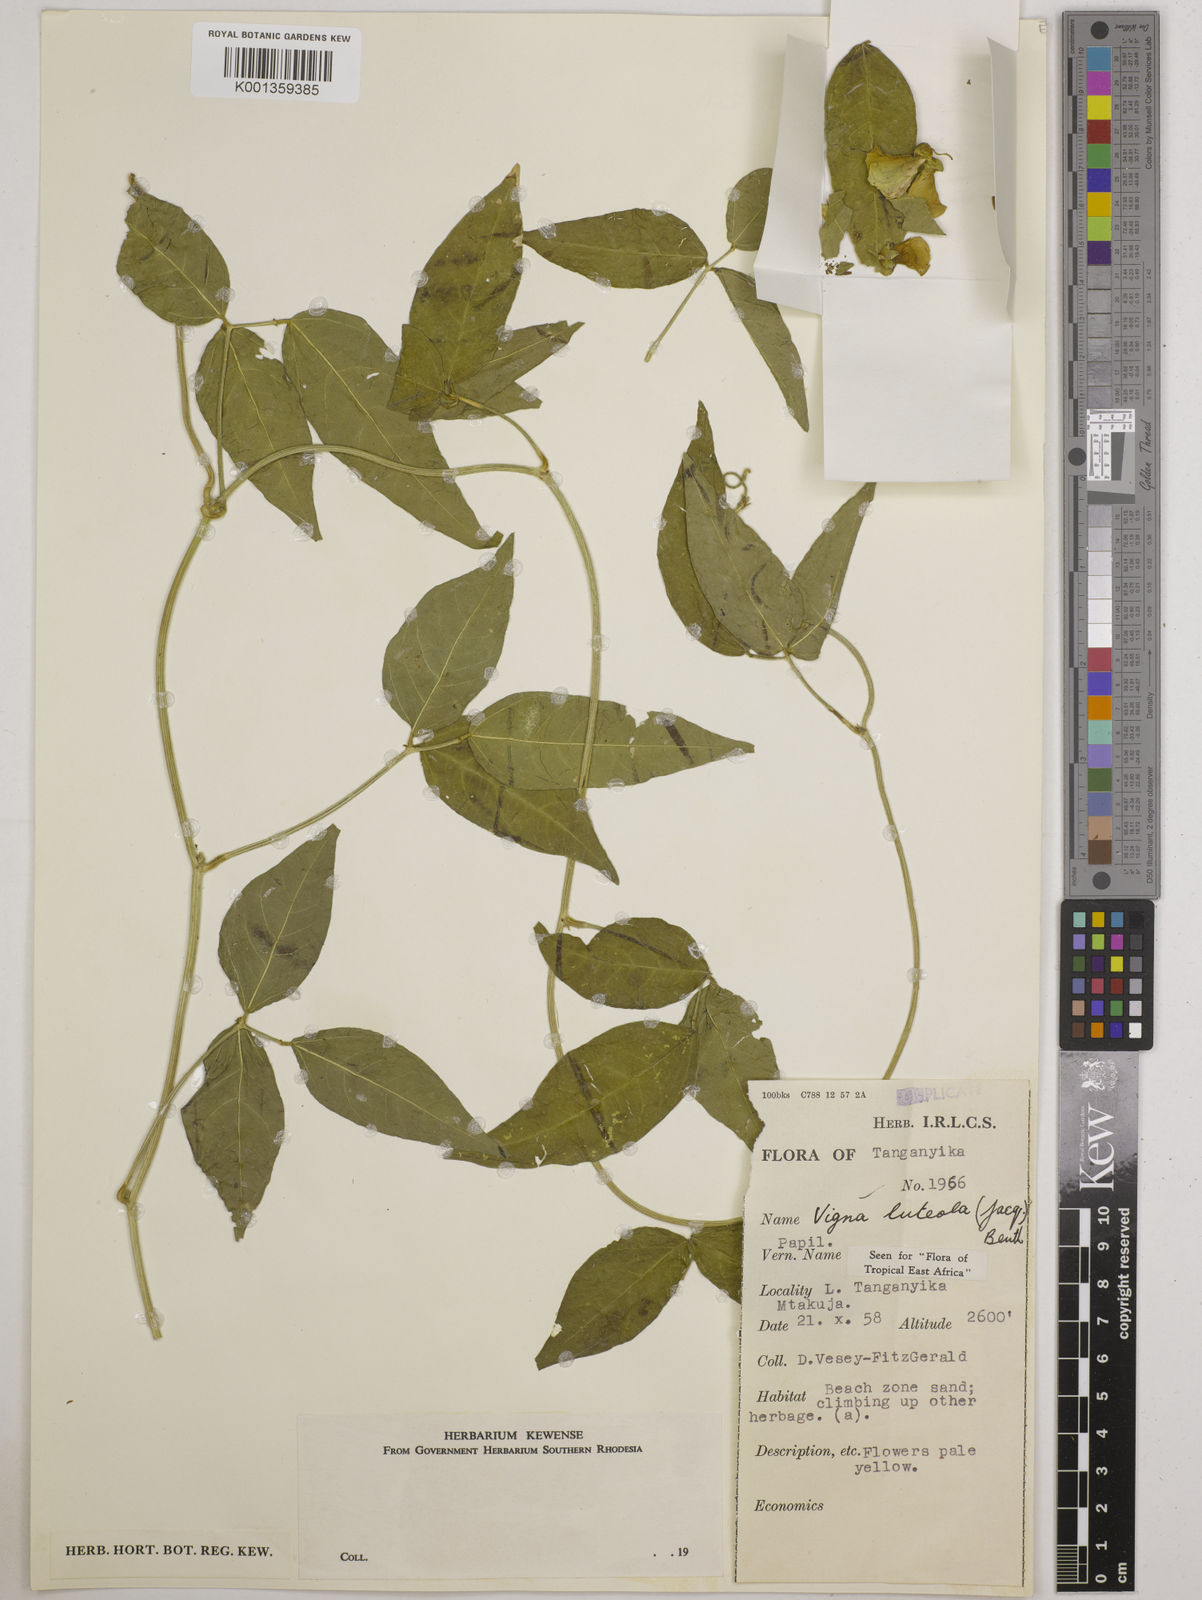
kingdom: Plantae
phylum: Tracheophyta
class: Magnoliopsida
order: Fabales
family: Fabaceae
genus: Vigna
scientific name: Vigna luteola
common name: Hairypod cowpea
